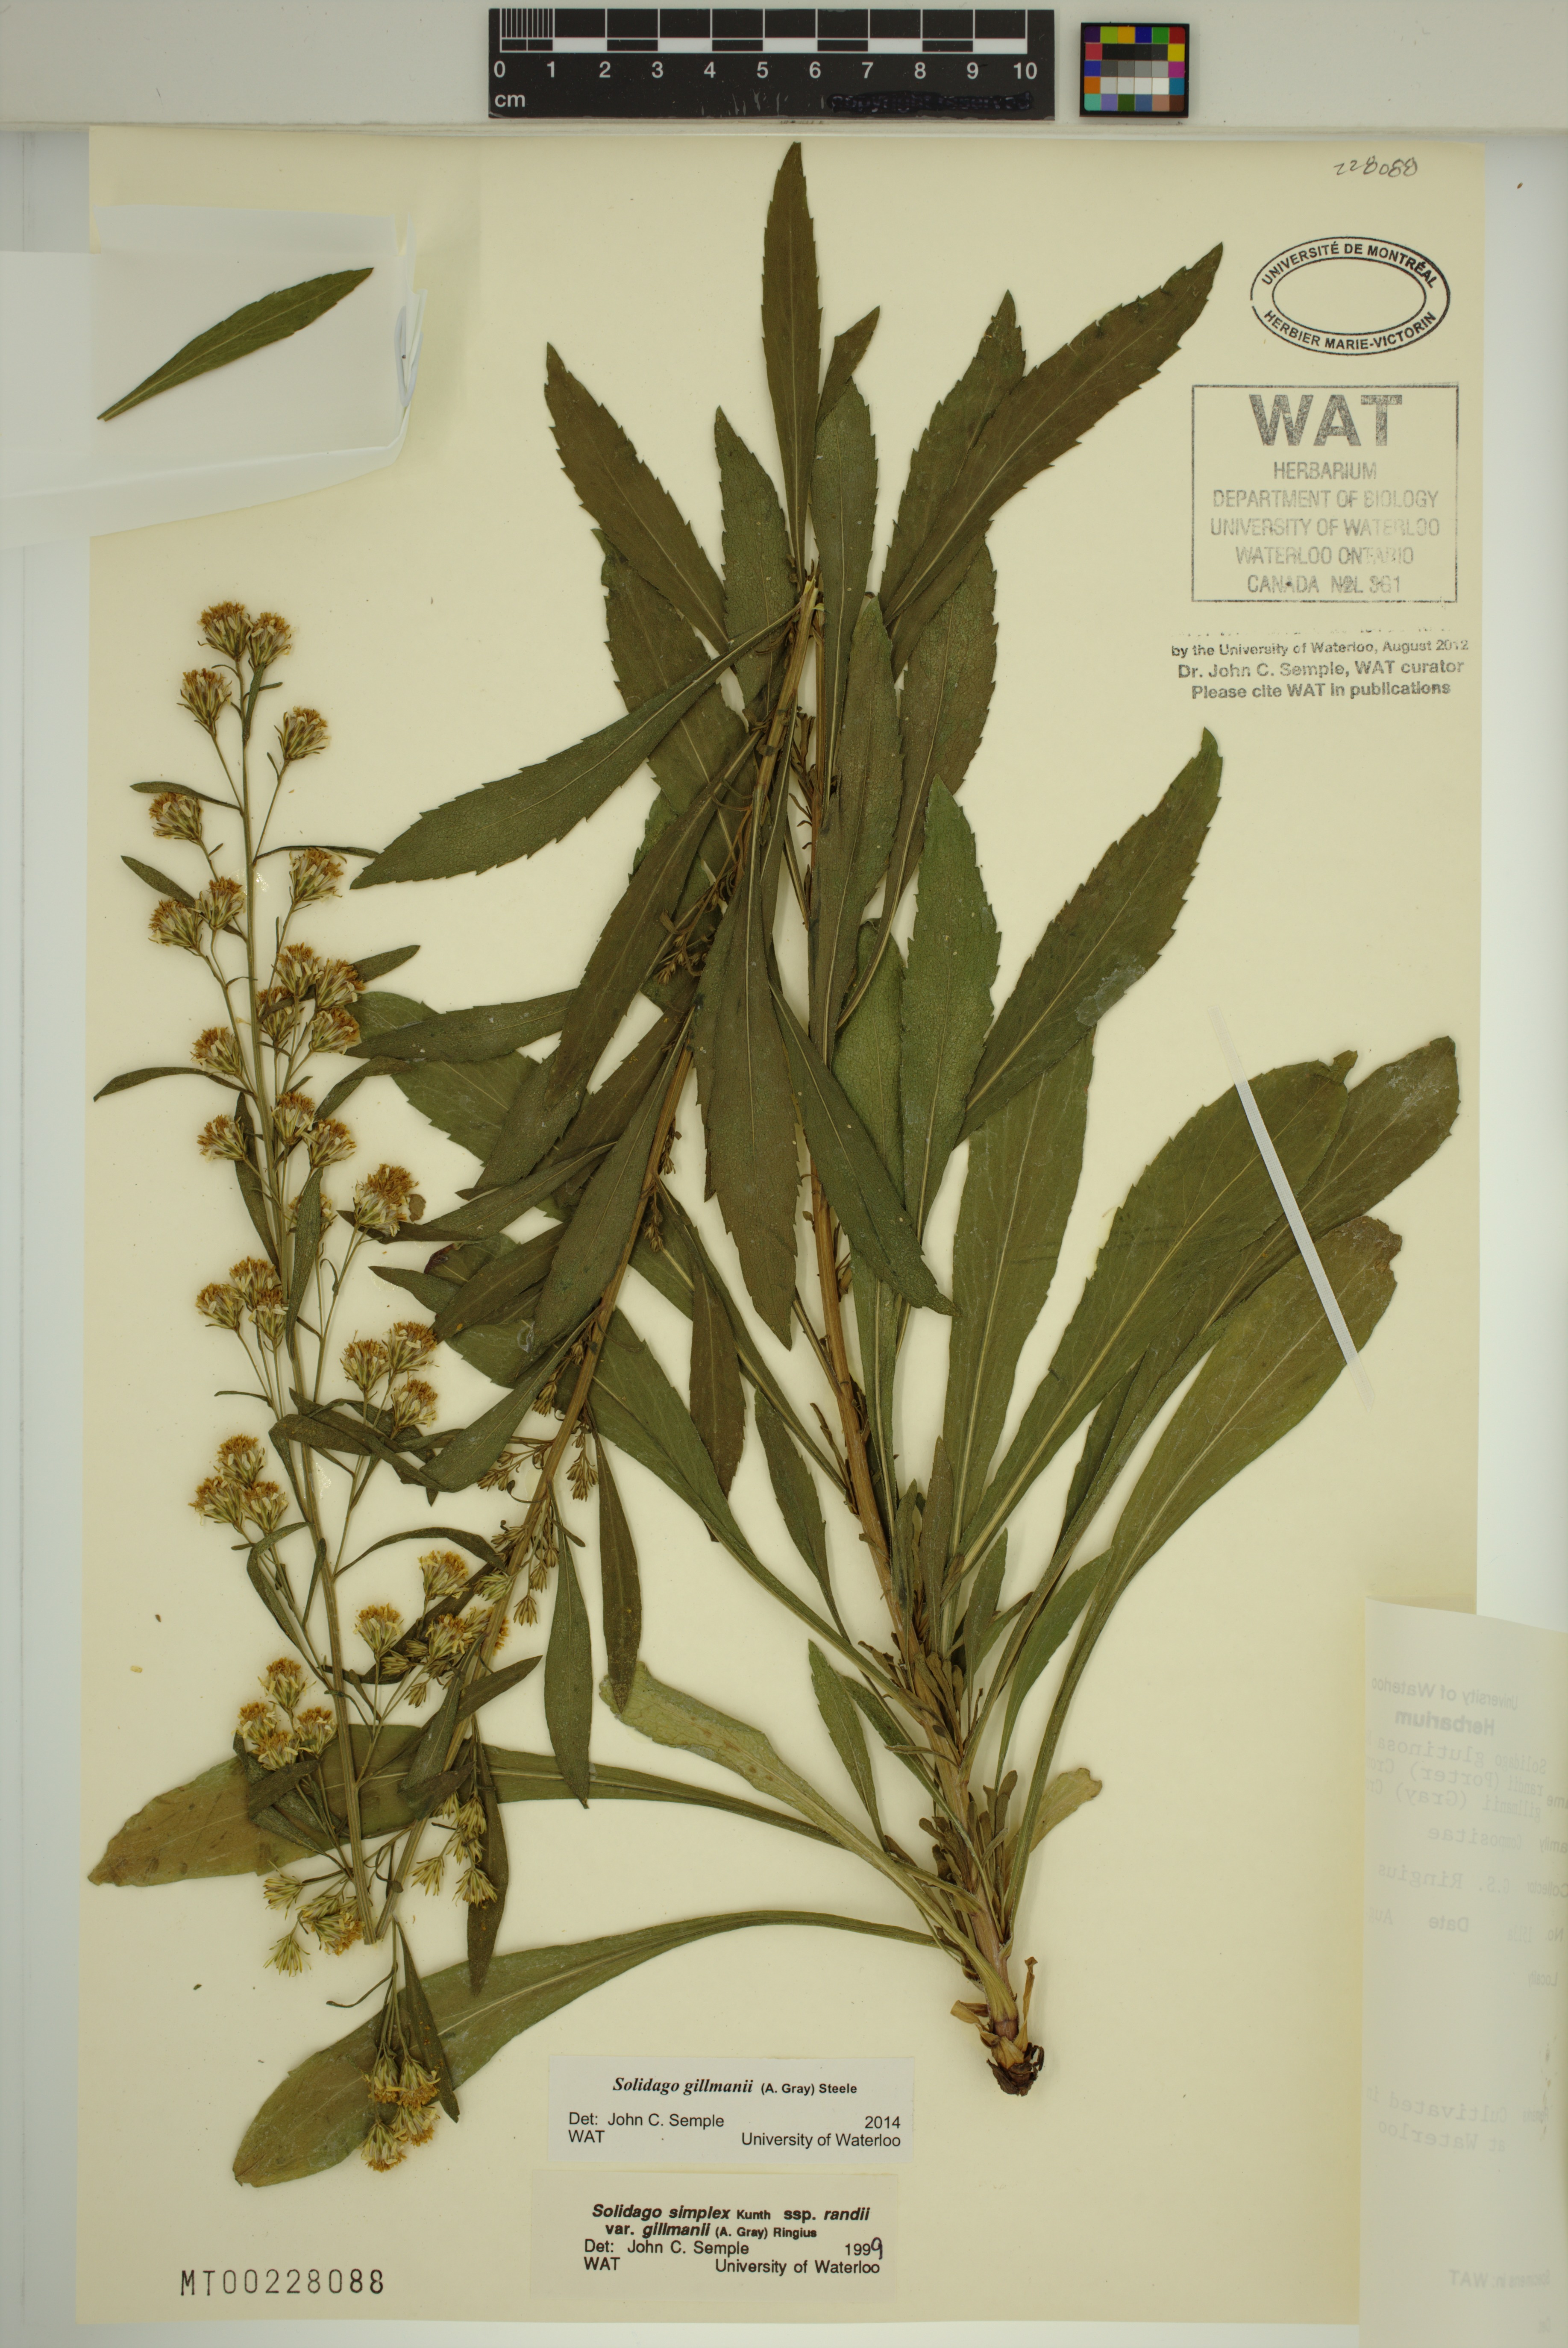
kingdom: Plantae
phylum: Tracheophyta
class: Magnoliopsida
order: Asterales
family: Asteraceae
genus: Solidago
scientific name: Solidago gillmanii
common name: Gillman's goldenrod
